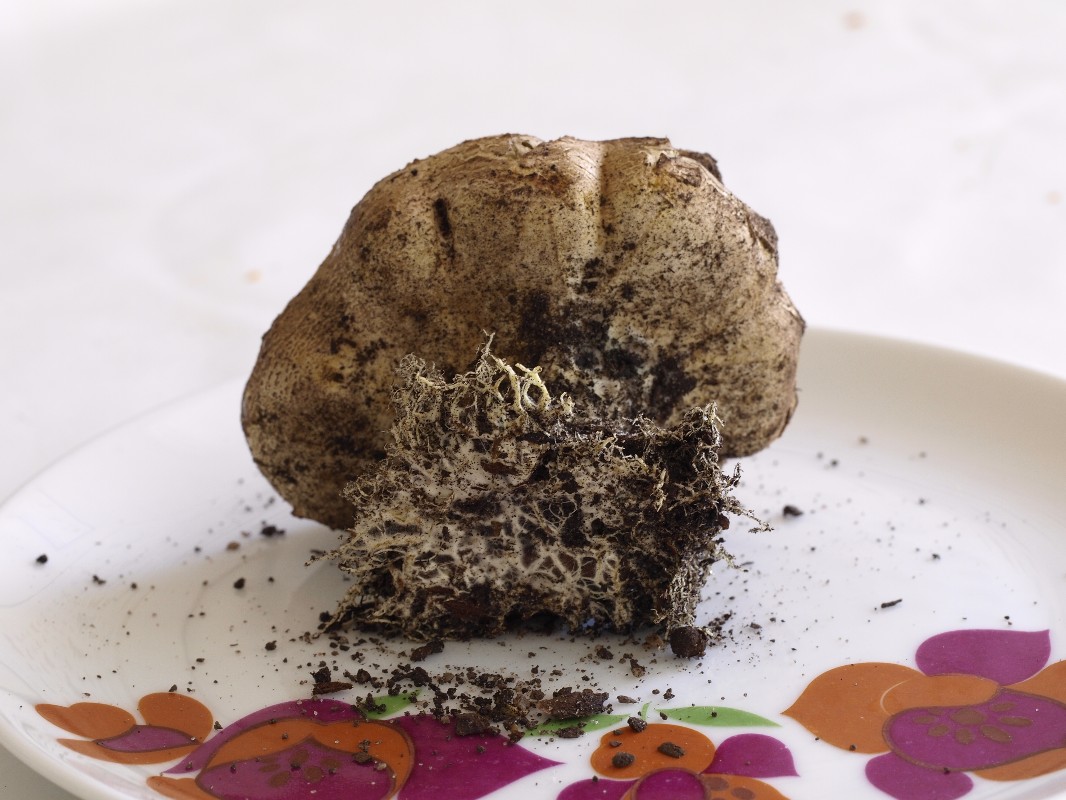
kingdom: Fungi
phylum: Basidiomycota
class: Agaricomycetes
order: Boletales
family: Sclerodermataceae
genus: Scleroderma
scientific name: Scleroderma verrucosum
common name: stilket bruskbold
